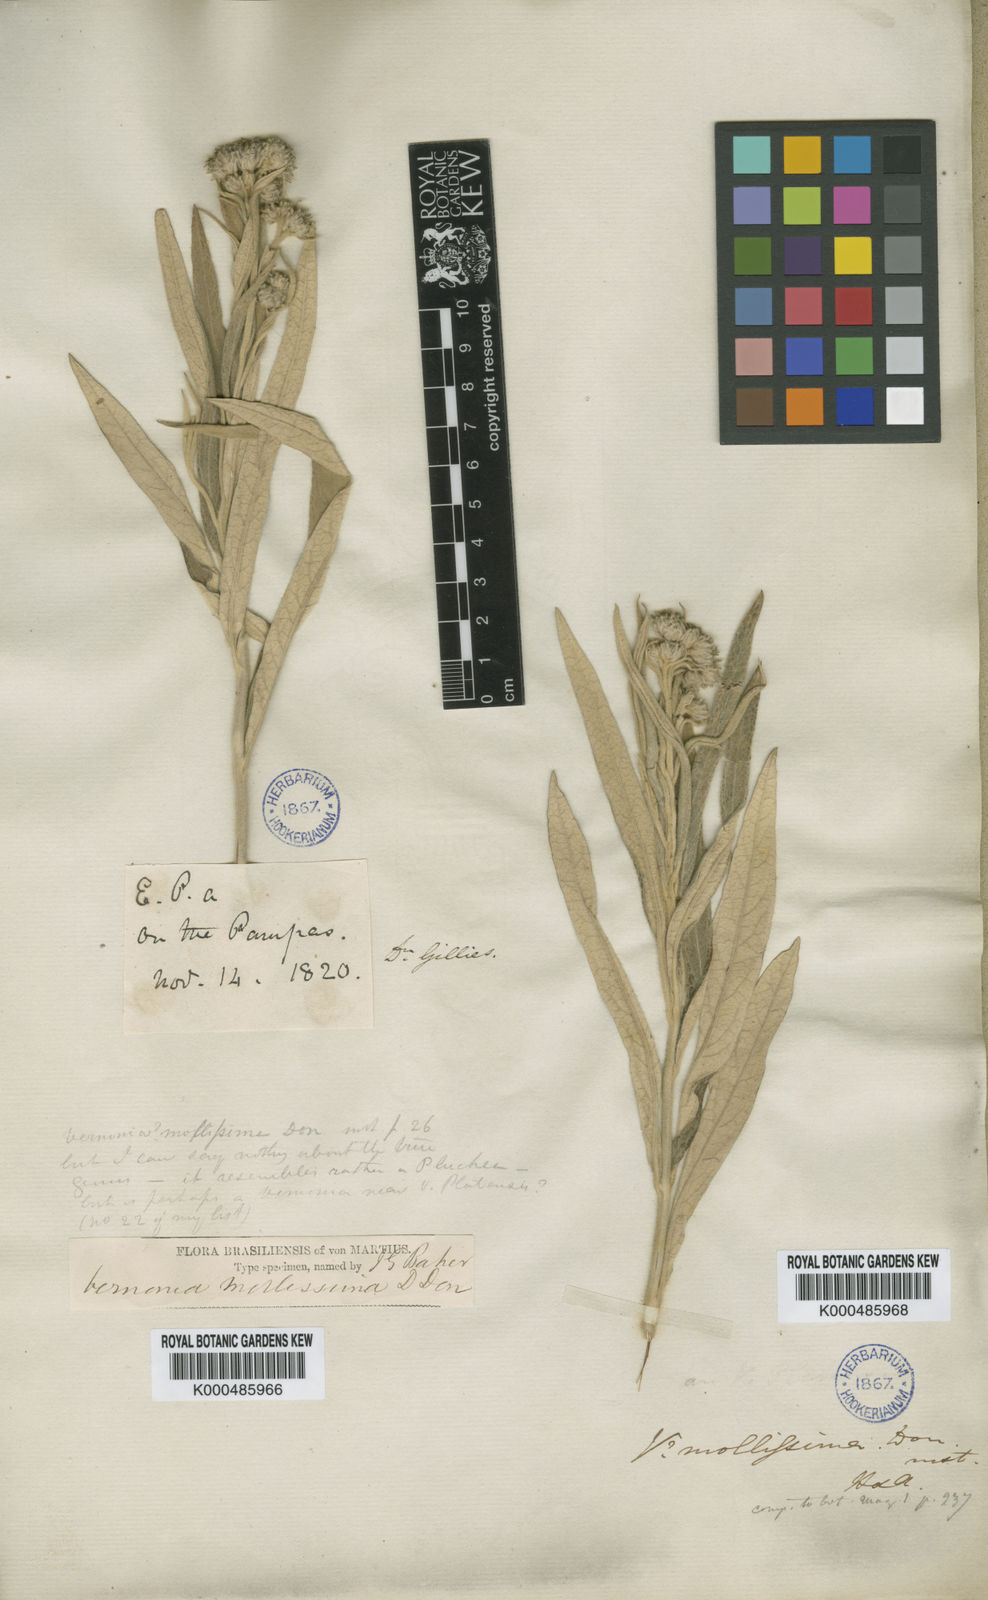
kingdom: Plantae
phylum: Tracheophyta
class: Magnoliopsida
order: Asterales
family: Asteraceae
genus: Lessingianthus
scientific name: Lessingianthus mollissimus
